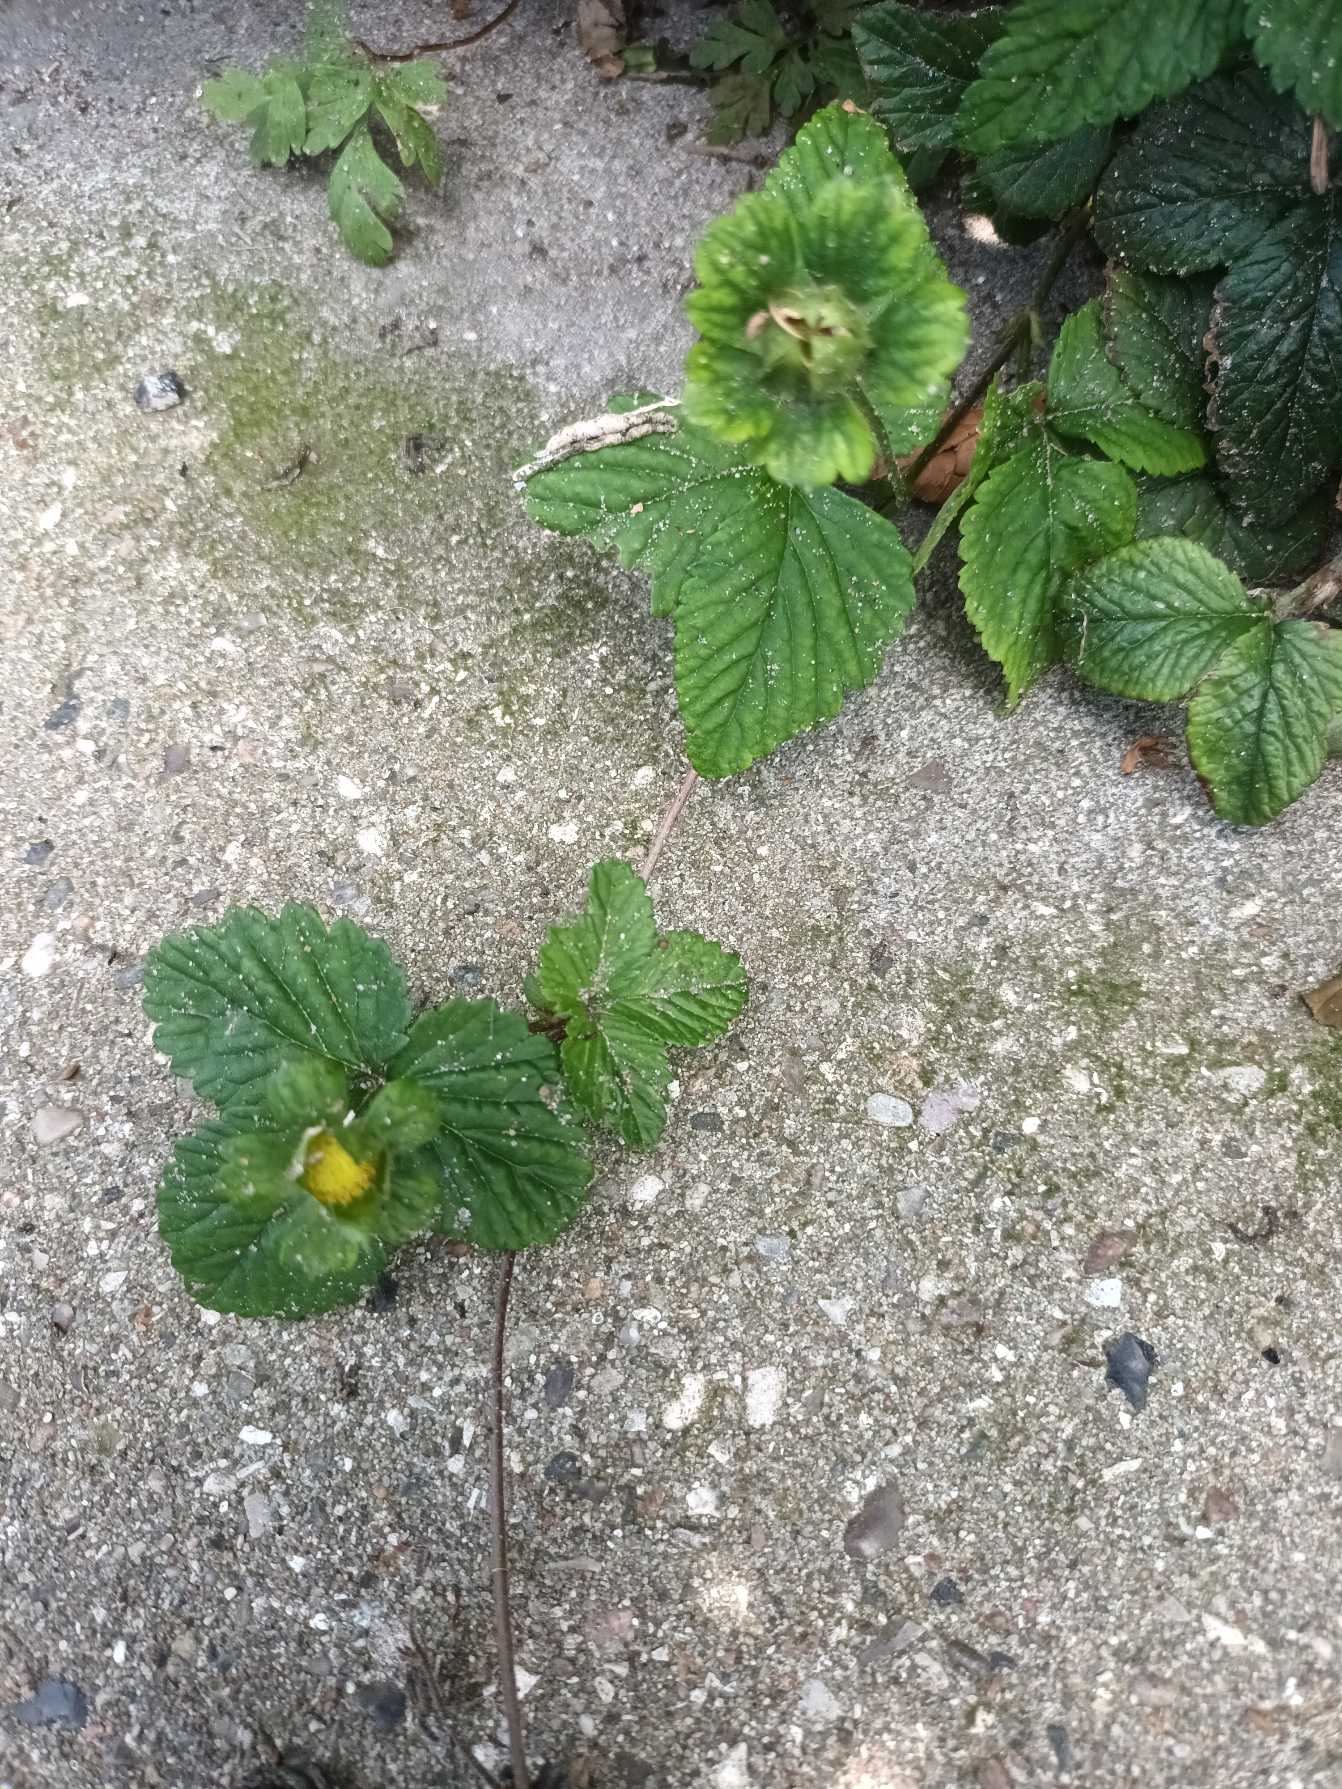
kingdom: Plantae
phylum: Tracheophyta
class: Magnoliopsida
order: Rosales
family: Rosaceae
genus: Potentilla
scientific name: Potentilla indica
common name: Indisk jordbær
